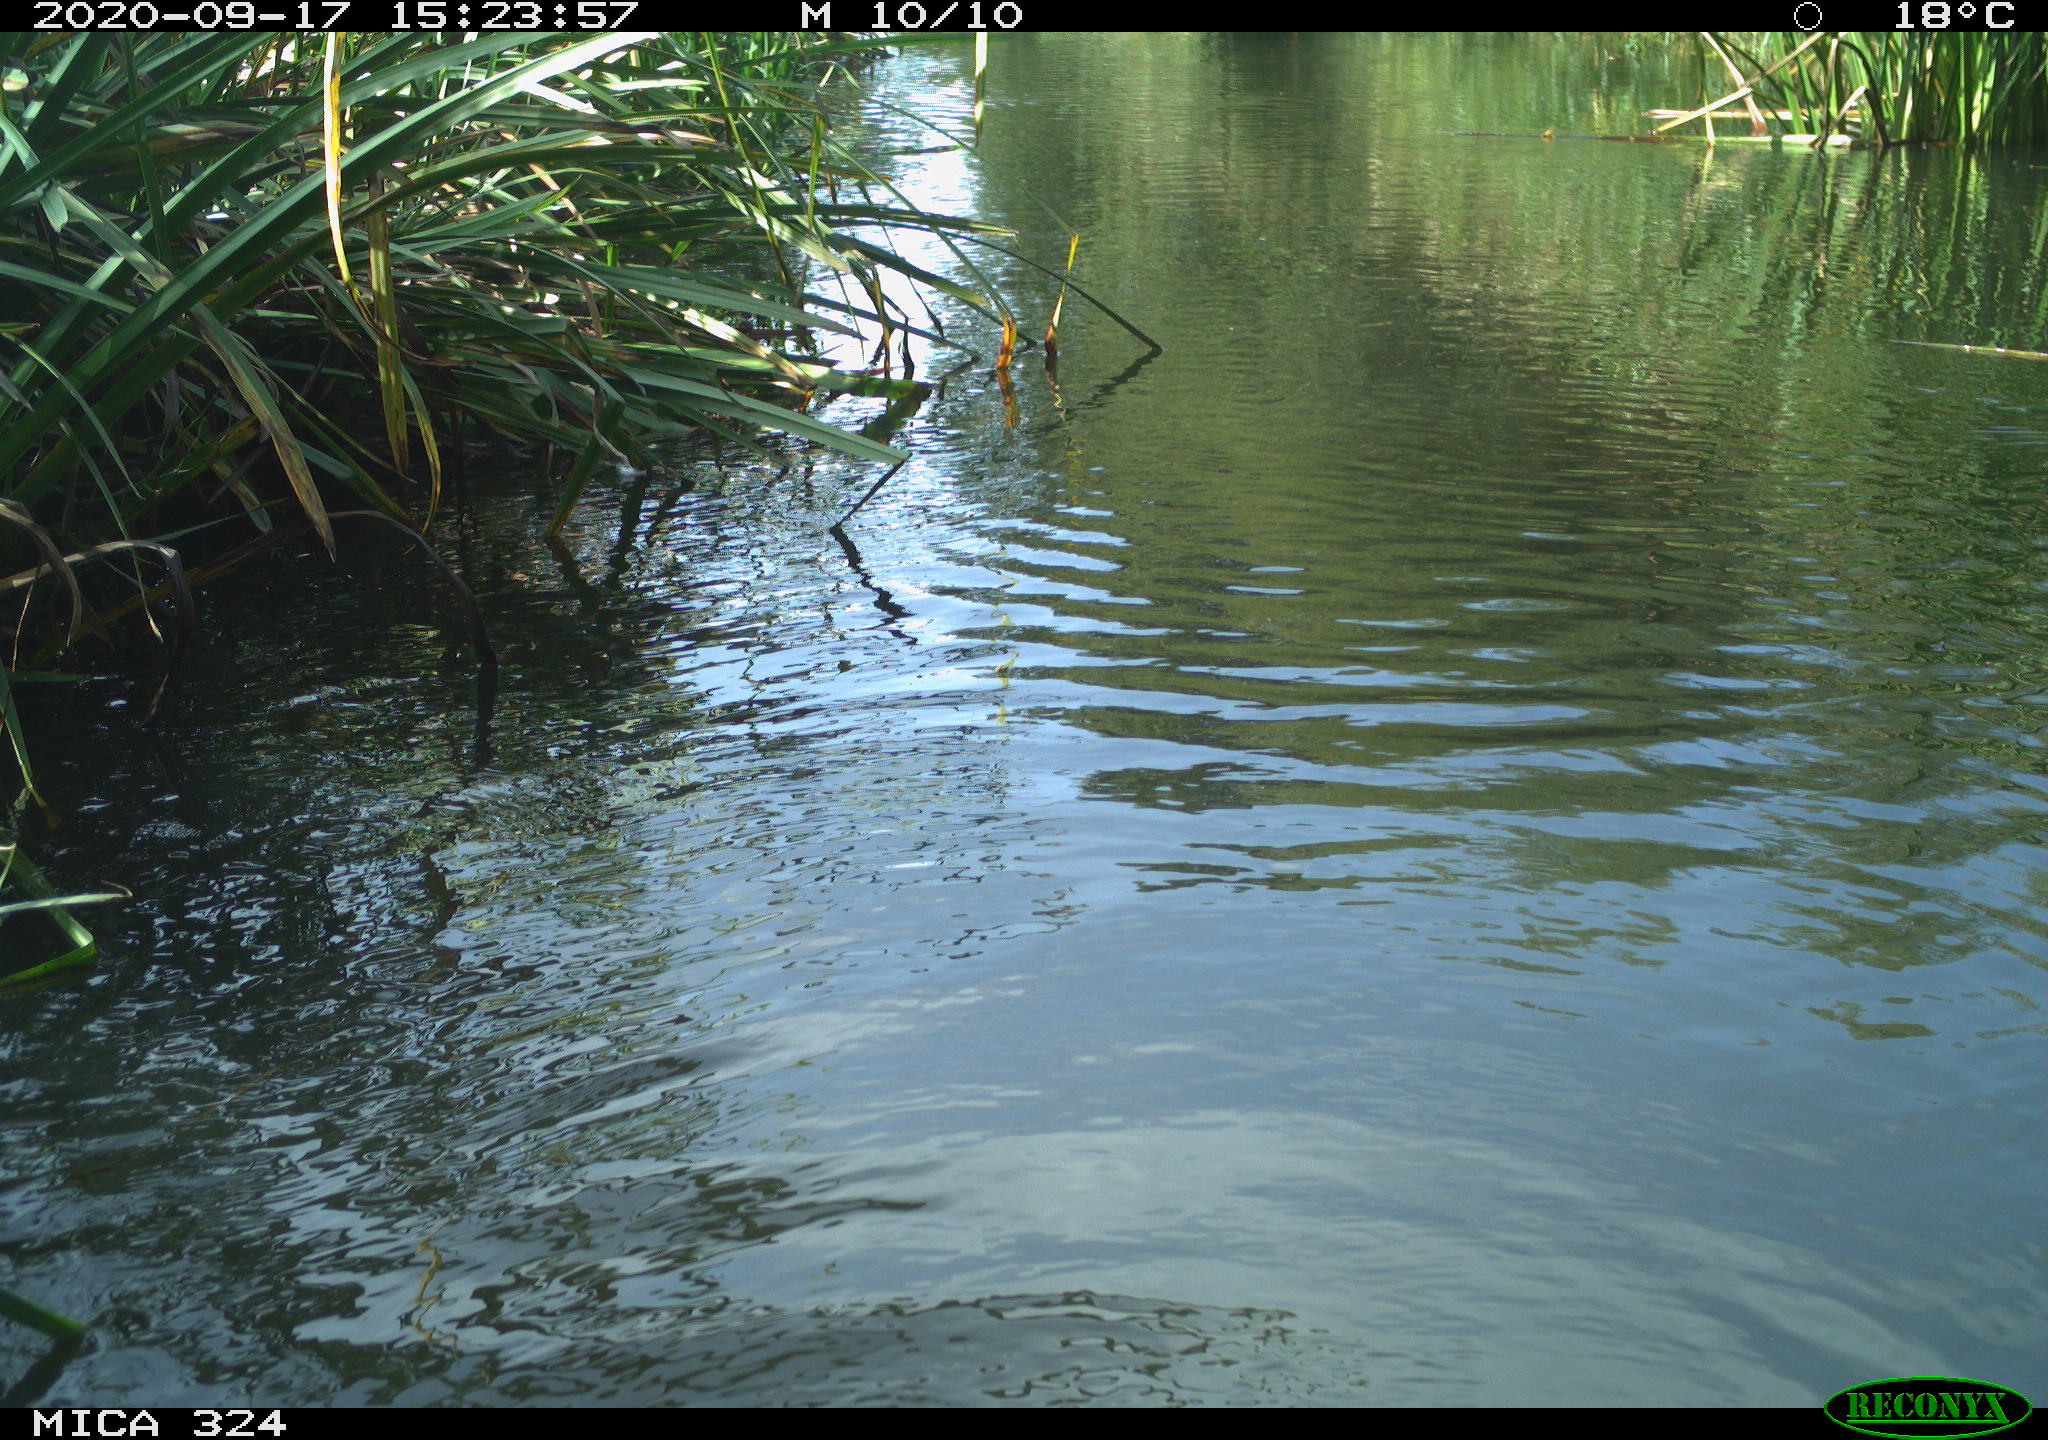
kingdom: Animalia
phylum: Chordata
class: Mammalia
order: Rodentia
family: Cricetidae
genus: Ondatra
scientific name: Ondatra zibethicus
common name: Muskrat
